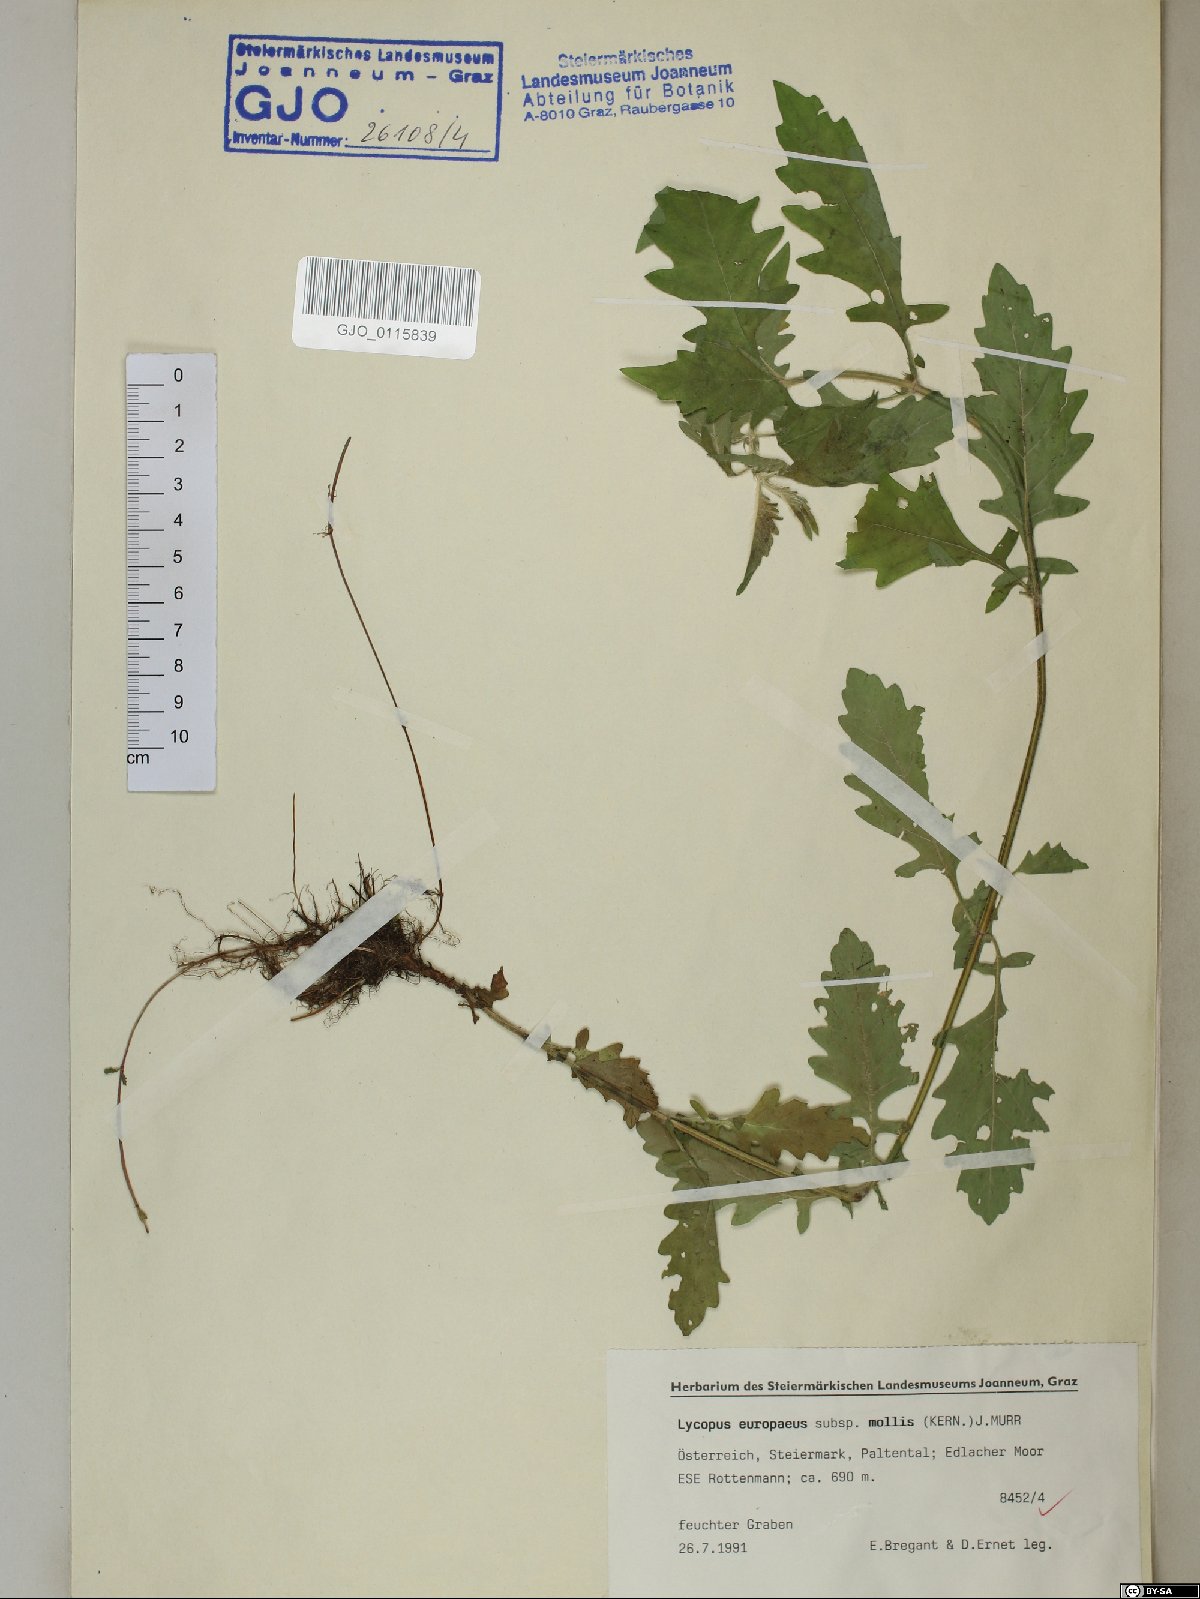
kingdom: Plantae
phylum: Tracheophyta
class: Magnoliopsida
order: Lamiales
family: Lamiaceae
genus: Lycopus
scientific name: Lycopus europaeus
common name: European bugleweed
